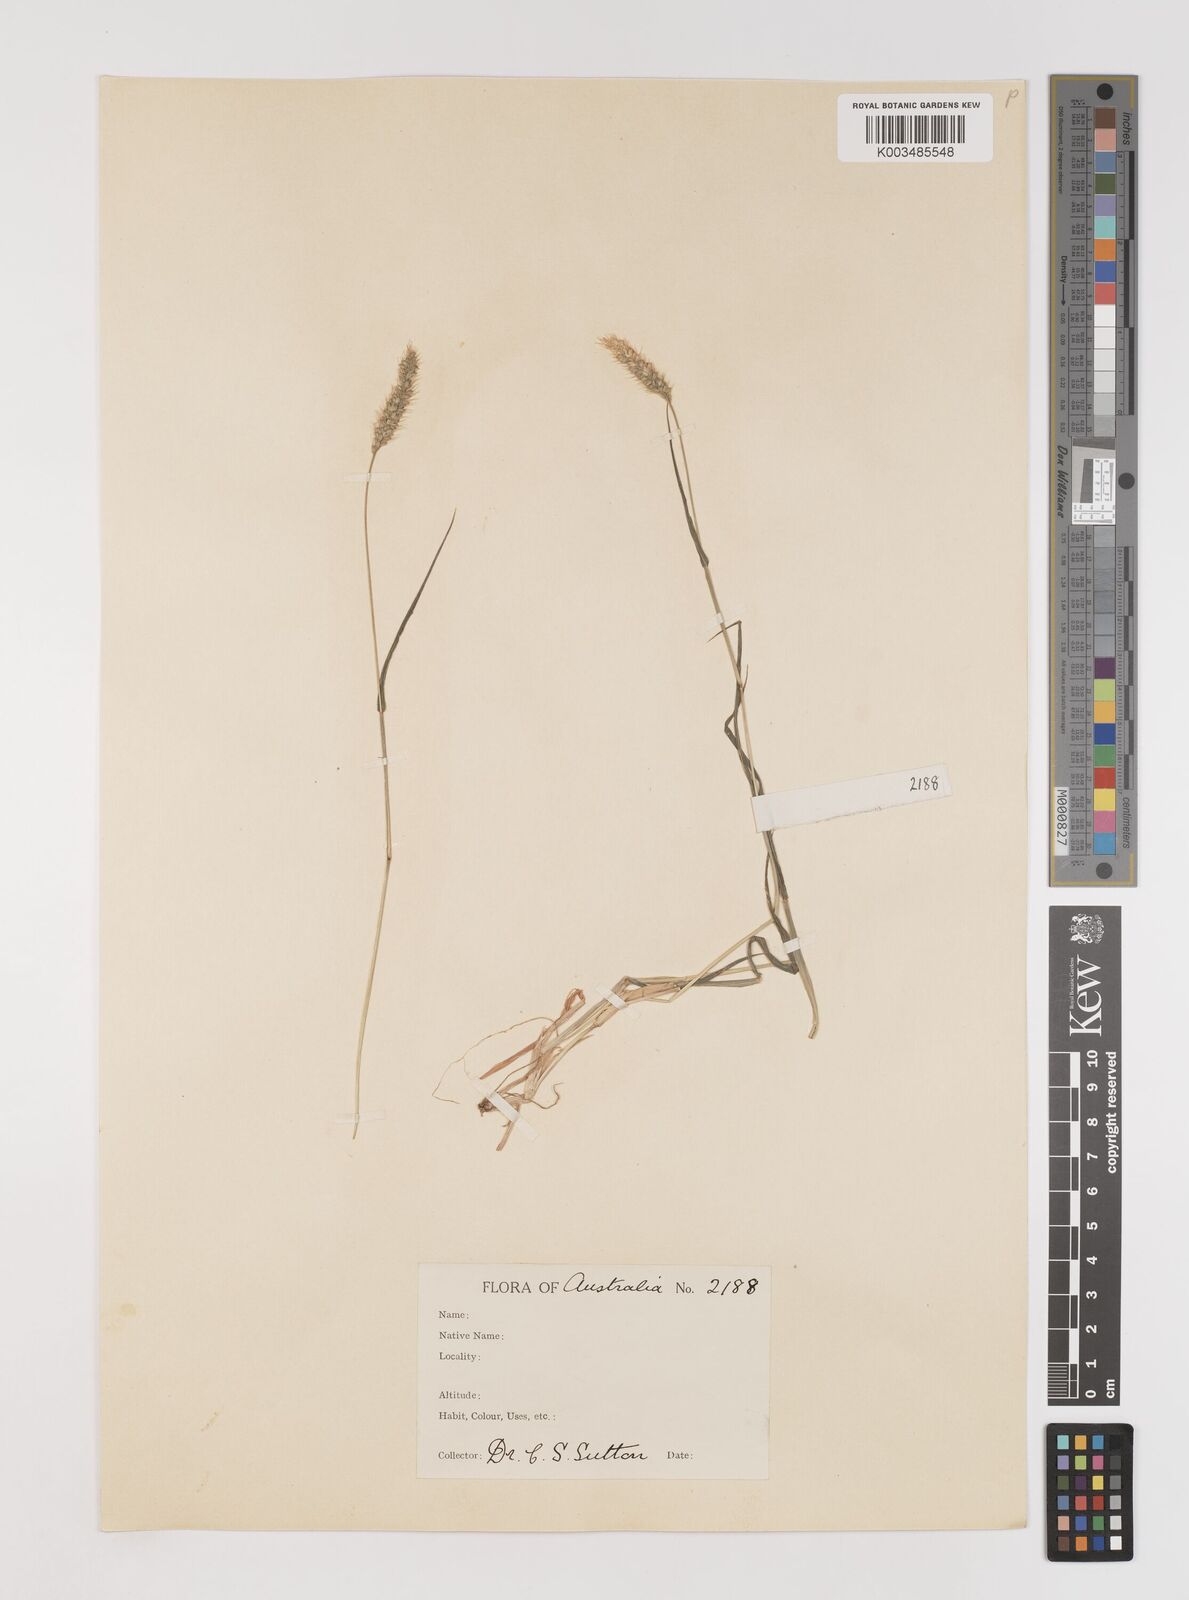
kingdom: Plantae
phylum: Tracheophyta
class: Liliopsida
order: Poales
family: Poaceae
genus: Setaria
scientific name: Setaria viridis
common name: Green bristlegrass
